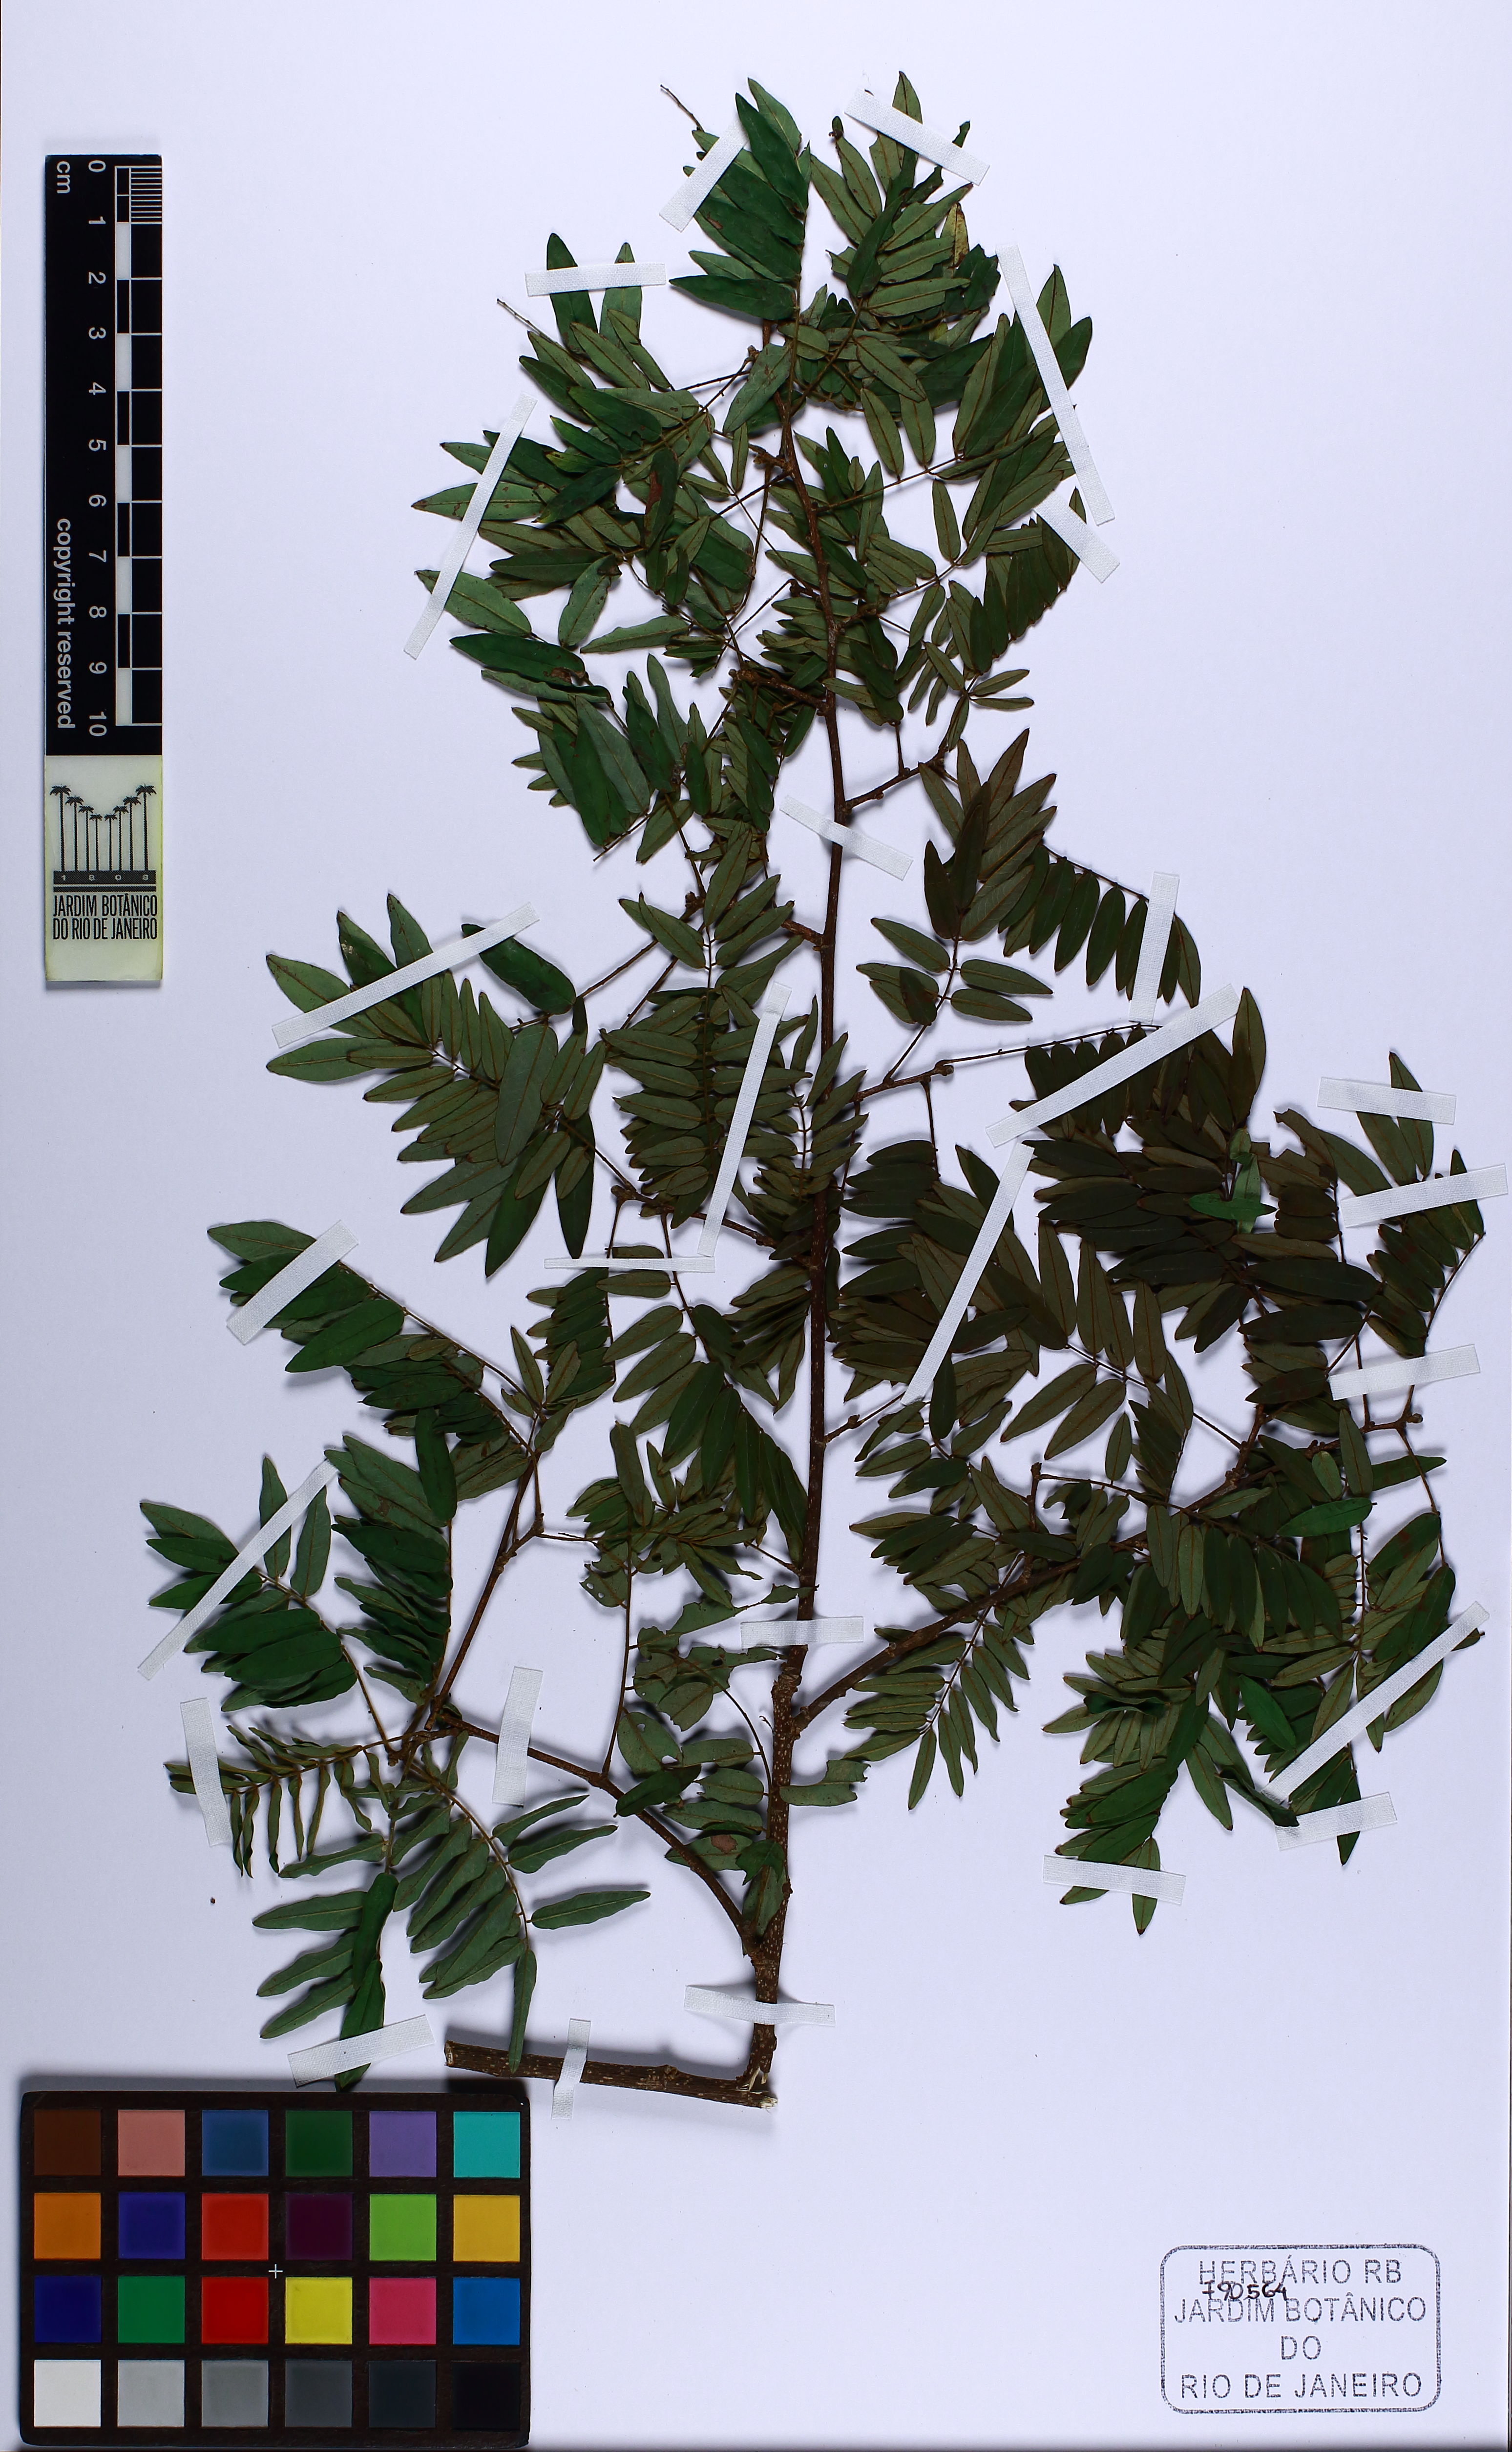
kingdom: Plantae
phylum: Tracheophyta
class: Magnoliopsida
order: Fabales
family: Fabaceae
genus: Machaerium
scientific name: Machaerium incorruptibile
